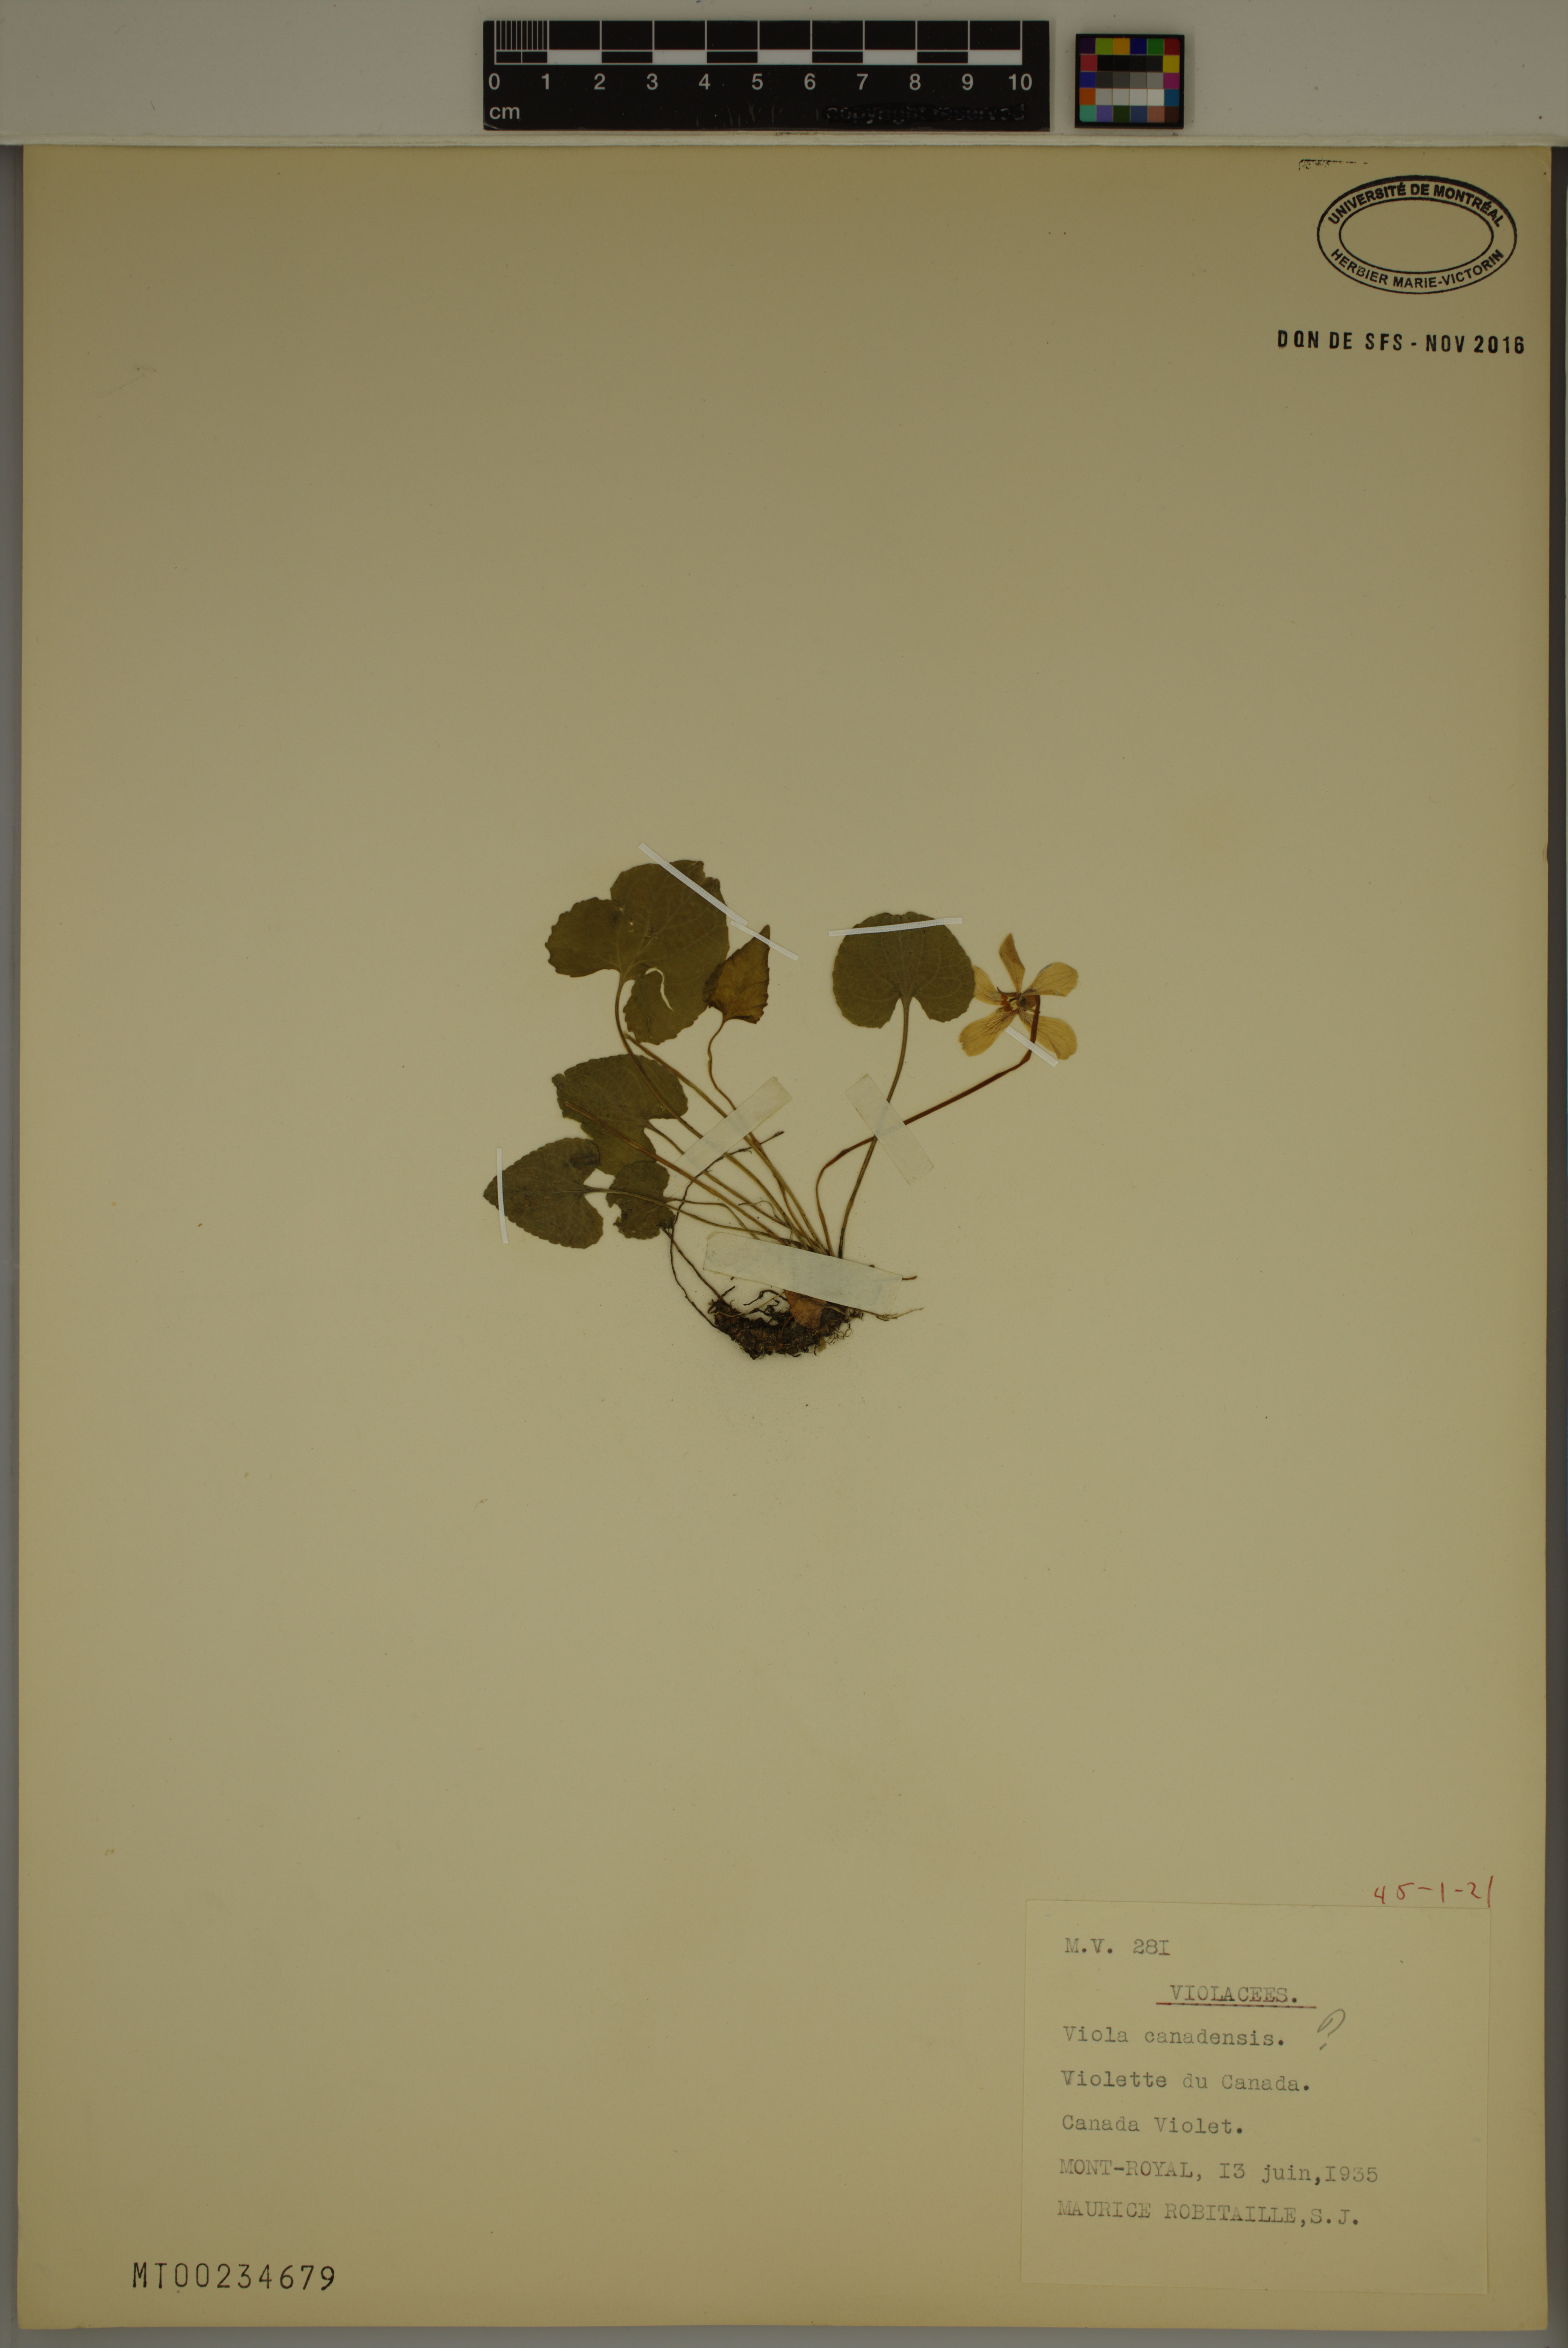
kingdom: Plantae
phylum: Tracheophyta
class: Magnoliopsida
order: Malpighiales
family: Violaceae
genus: Viola
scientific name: Viola canadensis
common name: Canada violet
